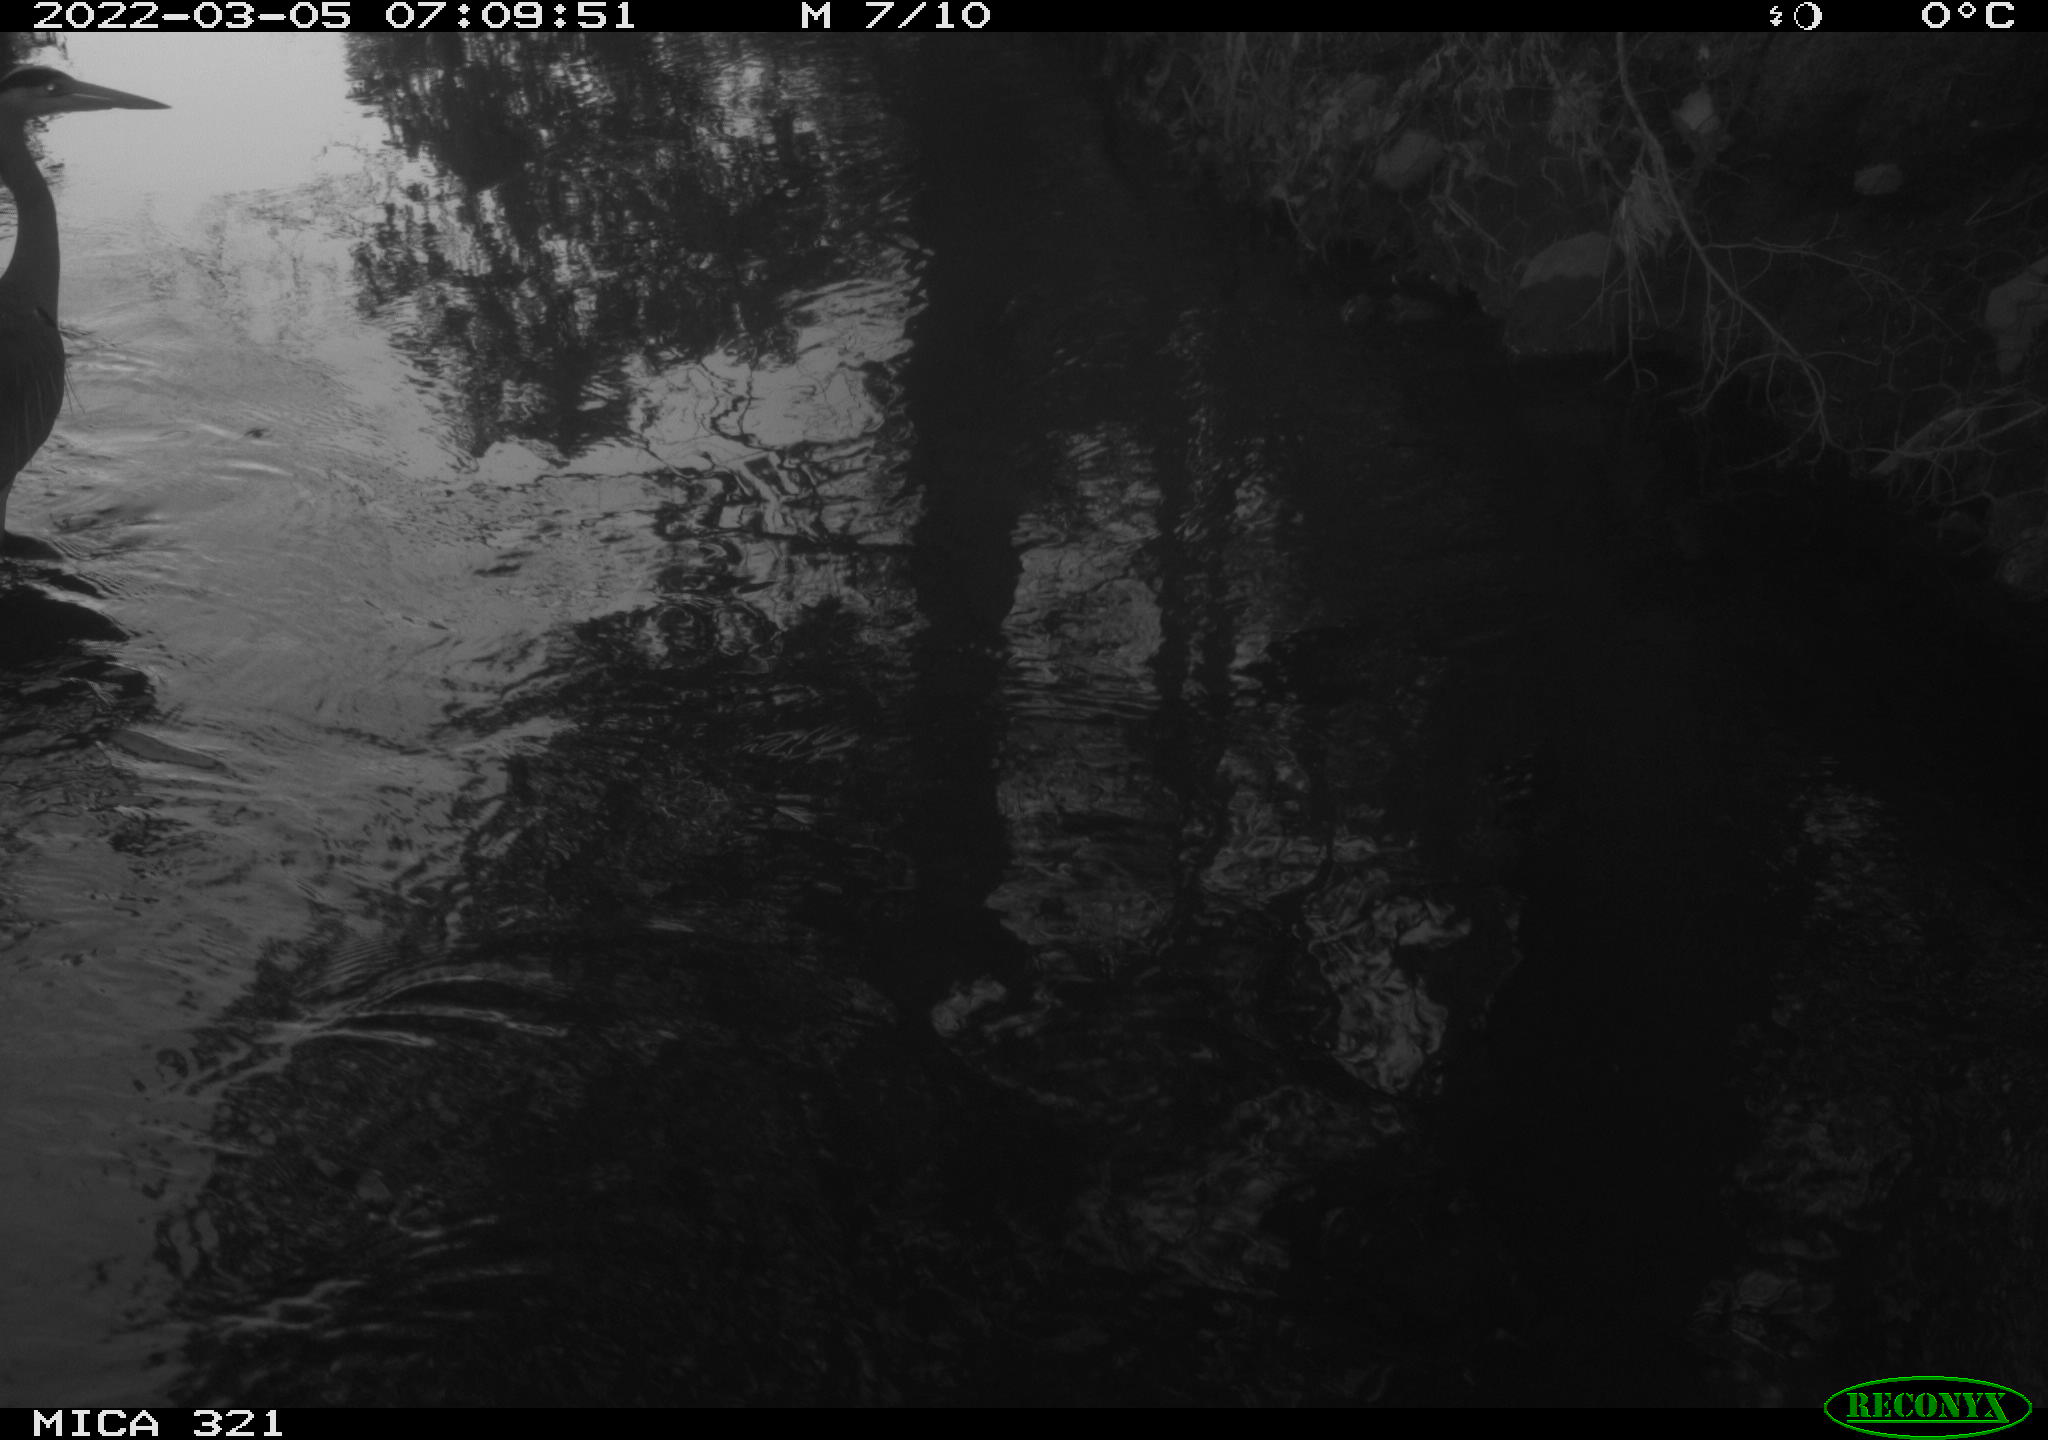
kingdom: Animalia
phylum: Chordata
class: Aves
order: Pelecaniformes
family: Ardeidae
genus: Ardea
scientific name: Ardea cinerea
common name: Grey heron
